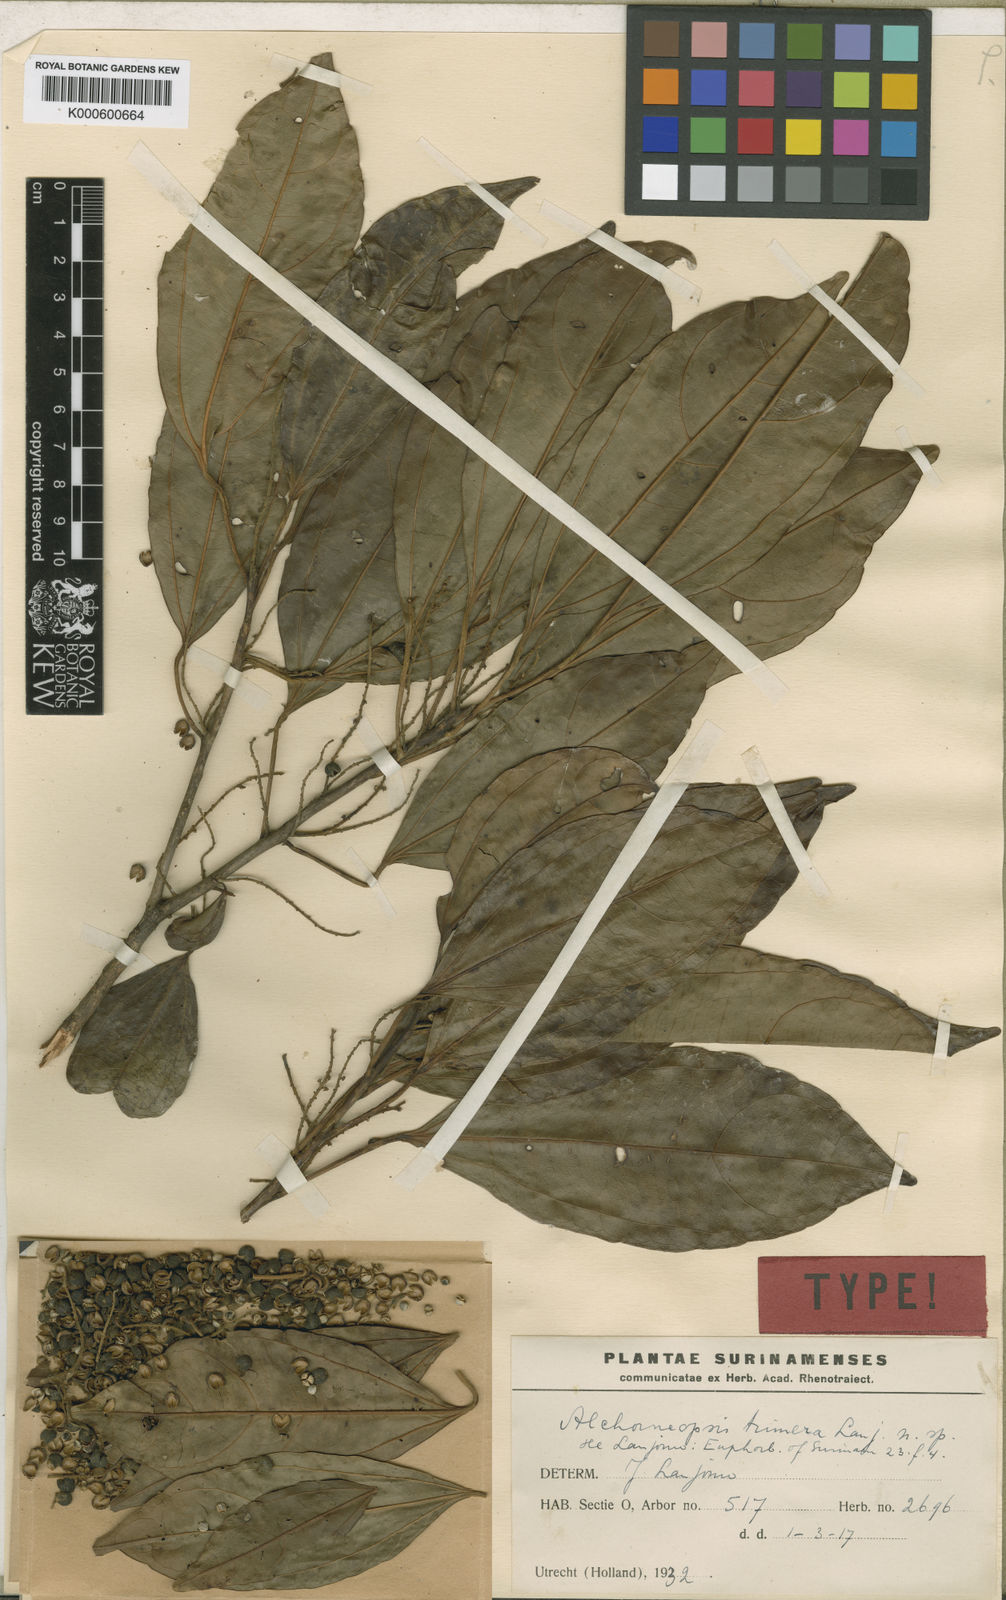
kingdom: Plantae
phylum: Tracheophyta
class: Magnoliopsida
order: Malpighiales
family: Euphorbiaceae
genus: Alchorneopsis
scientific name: Alchorneopsis
